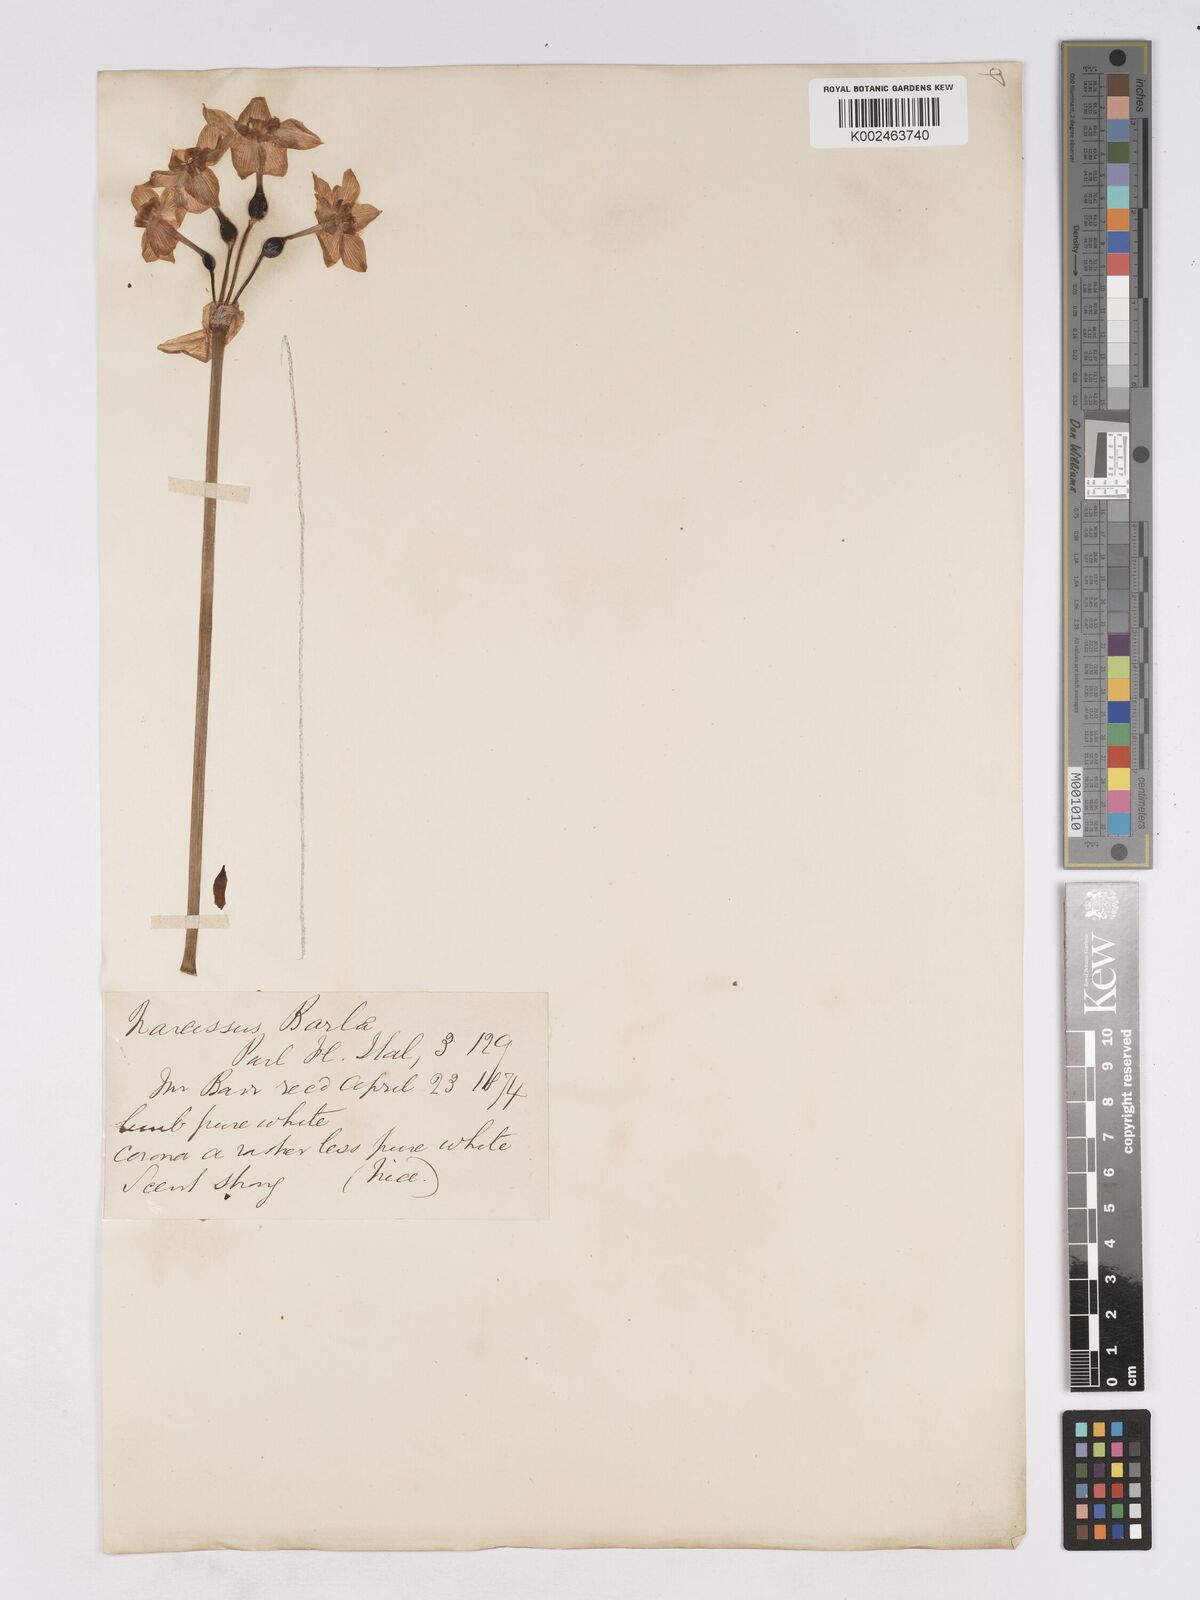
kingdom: Plantae
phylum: Tracheophyta
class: Liliopsida
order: Asparagales
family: Amaryllidaceae
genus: Narcissus
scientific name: Narcissus tazetta
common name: Bunch-flowered daffodil
